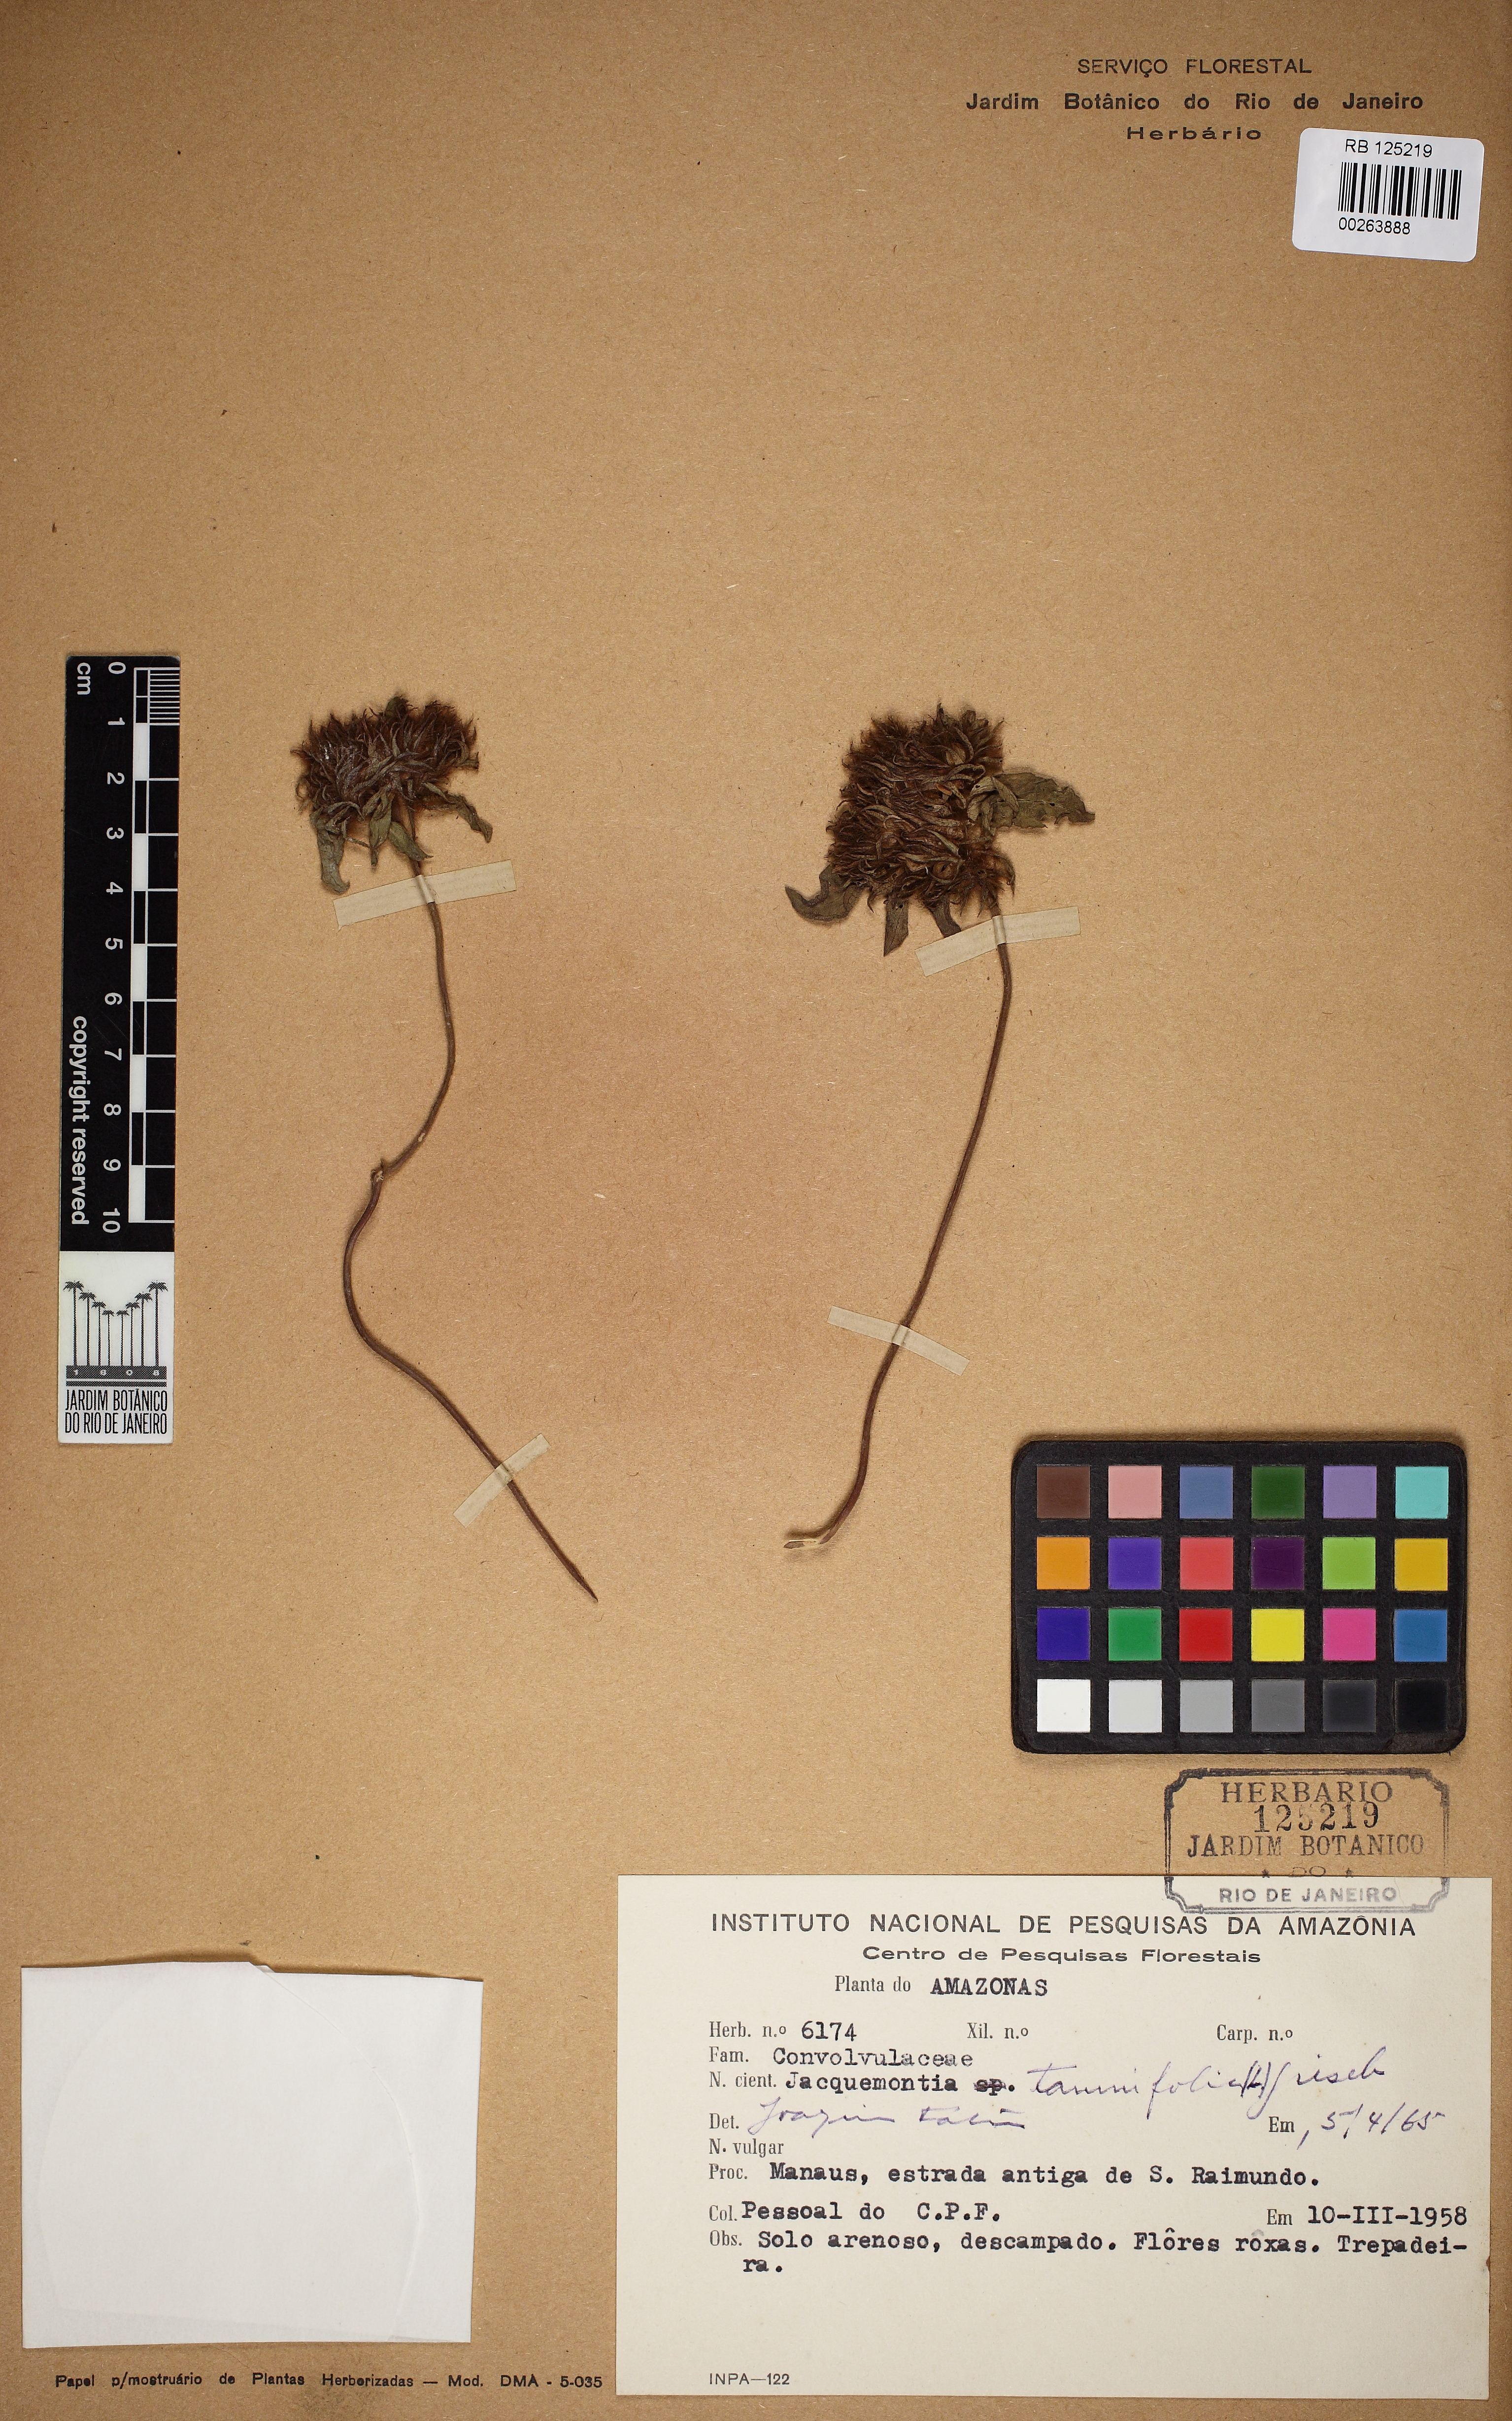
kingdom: Plantae
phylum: Tracheophyta
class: Magnoliopsida
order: Solanales
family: Convolvulaceae
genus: Jacquemontia
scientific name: Jacquemontia tamnifolia
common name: Hairy clustervine
